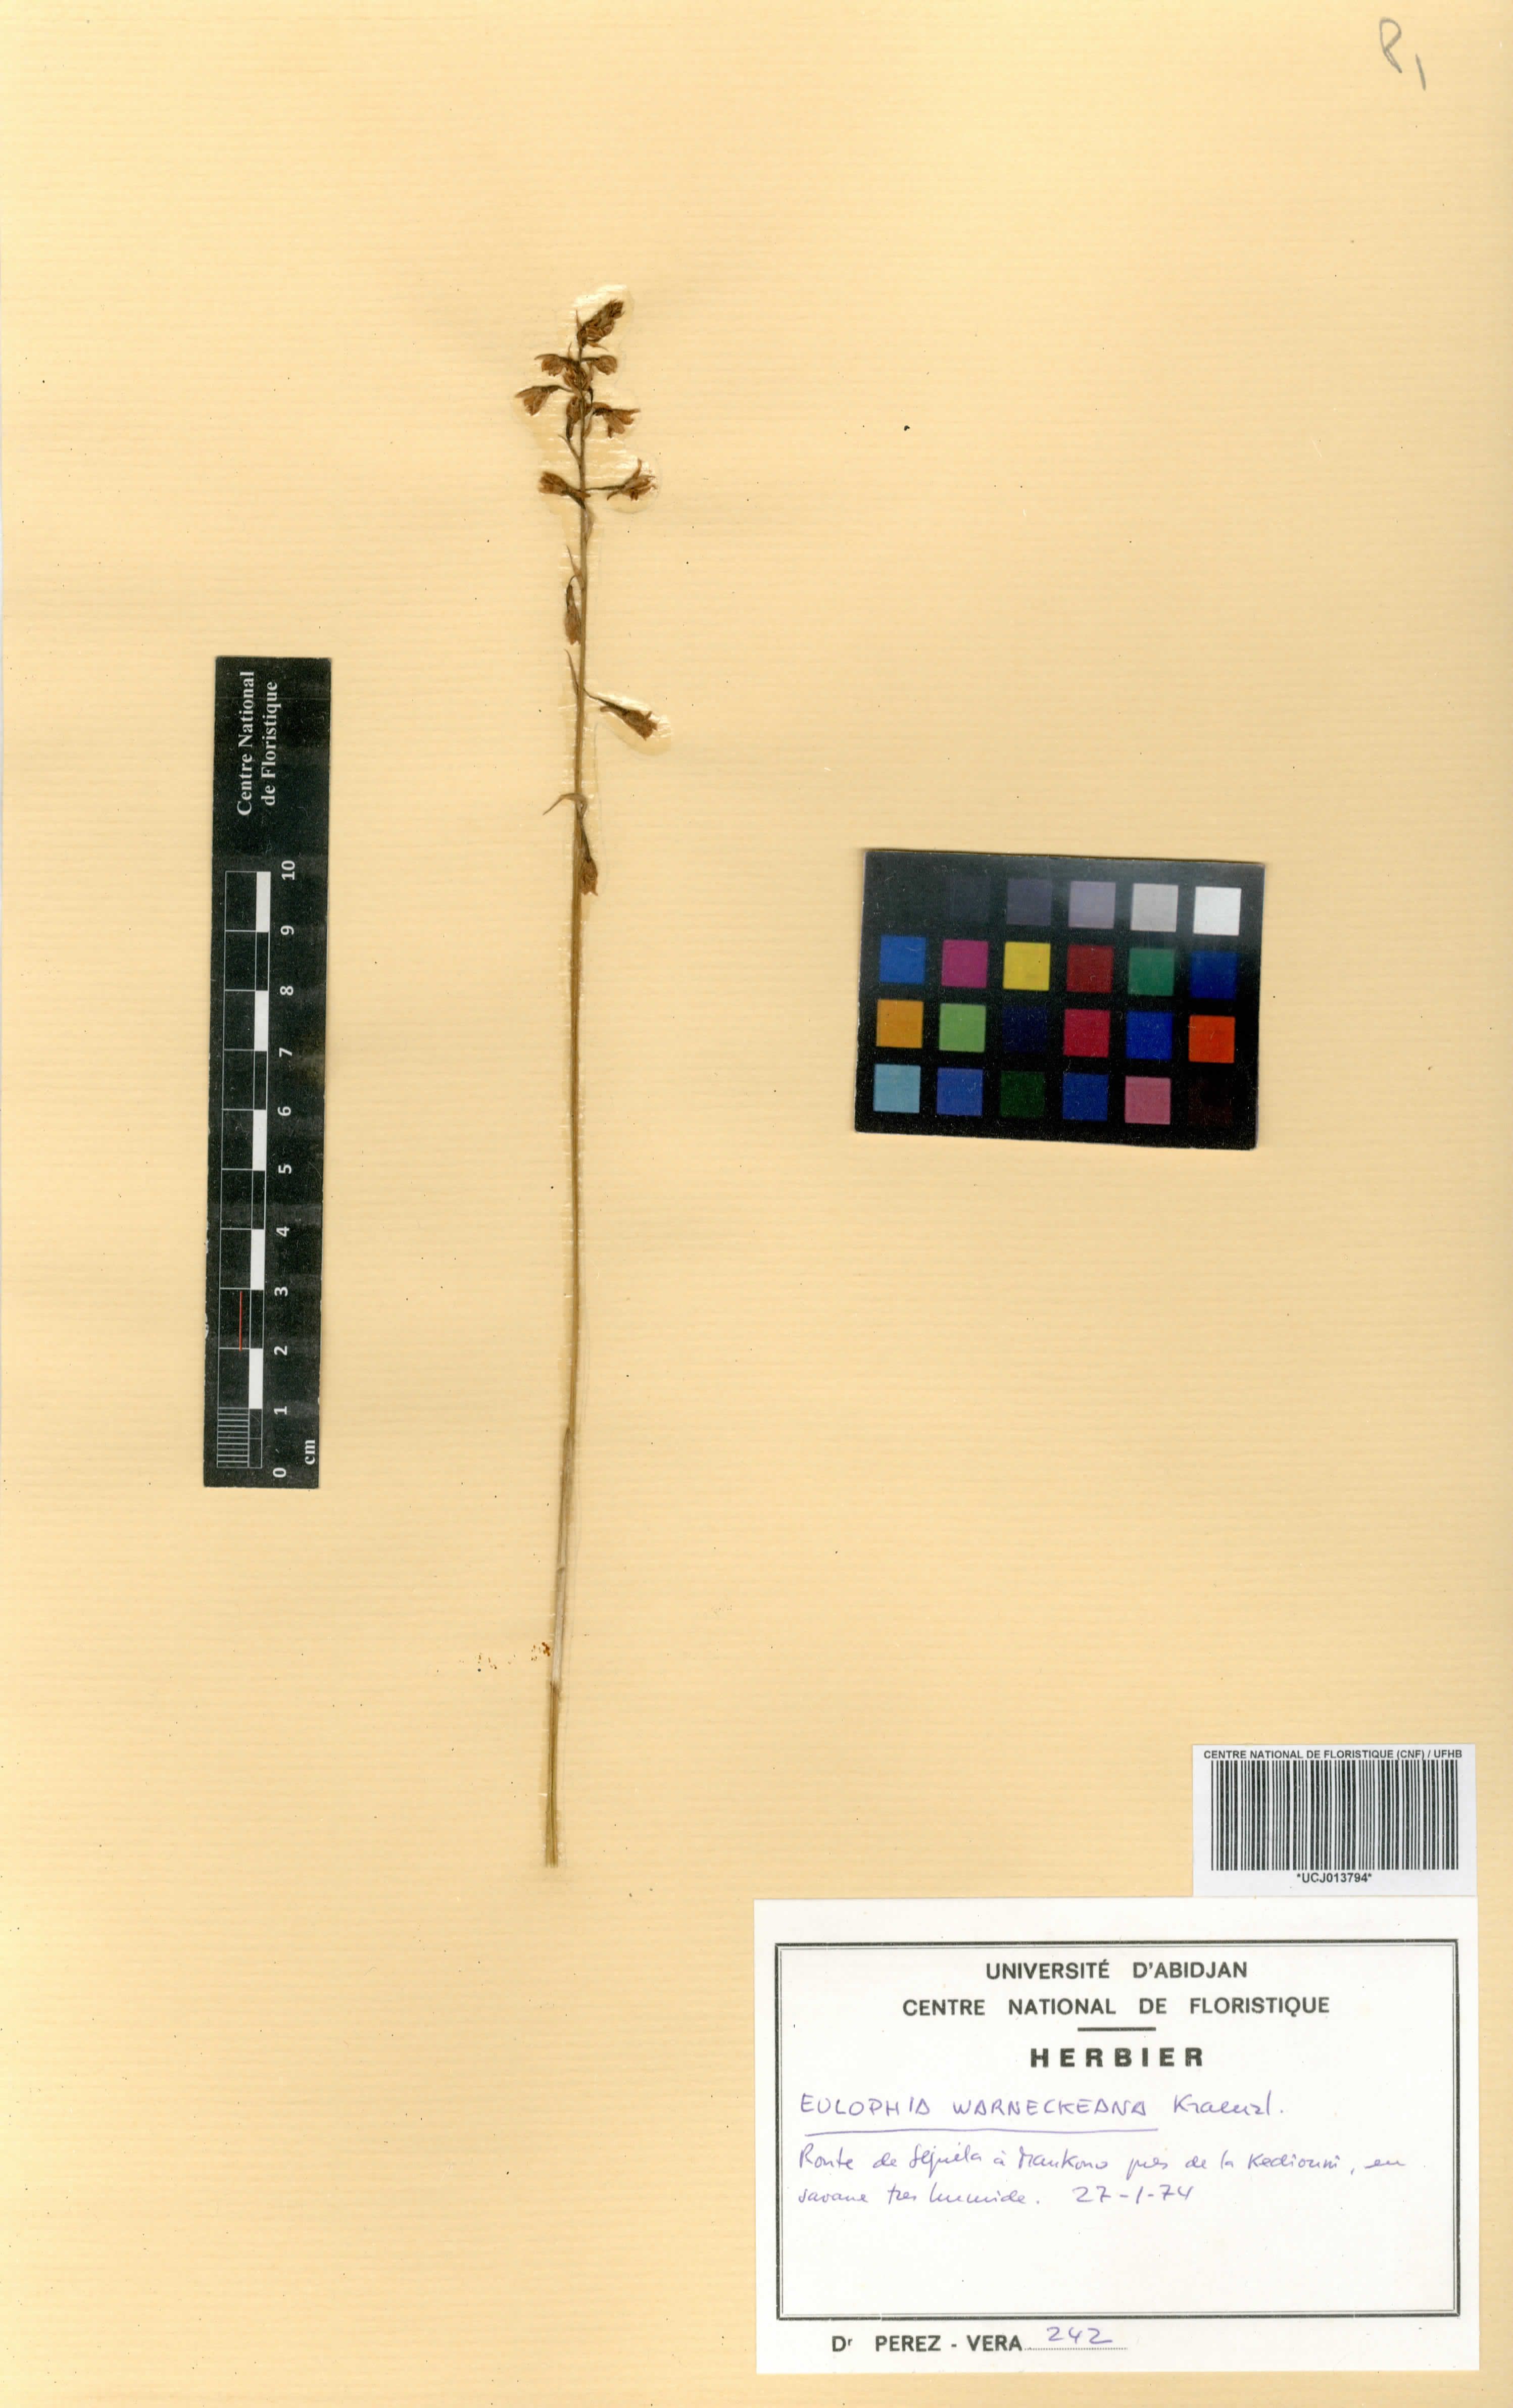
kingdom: Plantae
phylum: Tracheophyta
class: Liliopsida
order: Asparagales
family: Orchidaceae
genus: Eulophia
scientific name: Eulophia milnei
